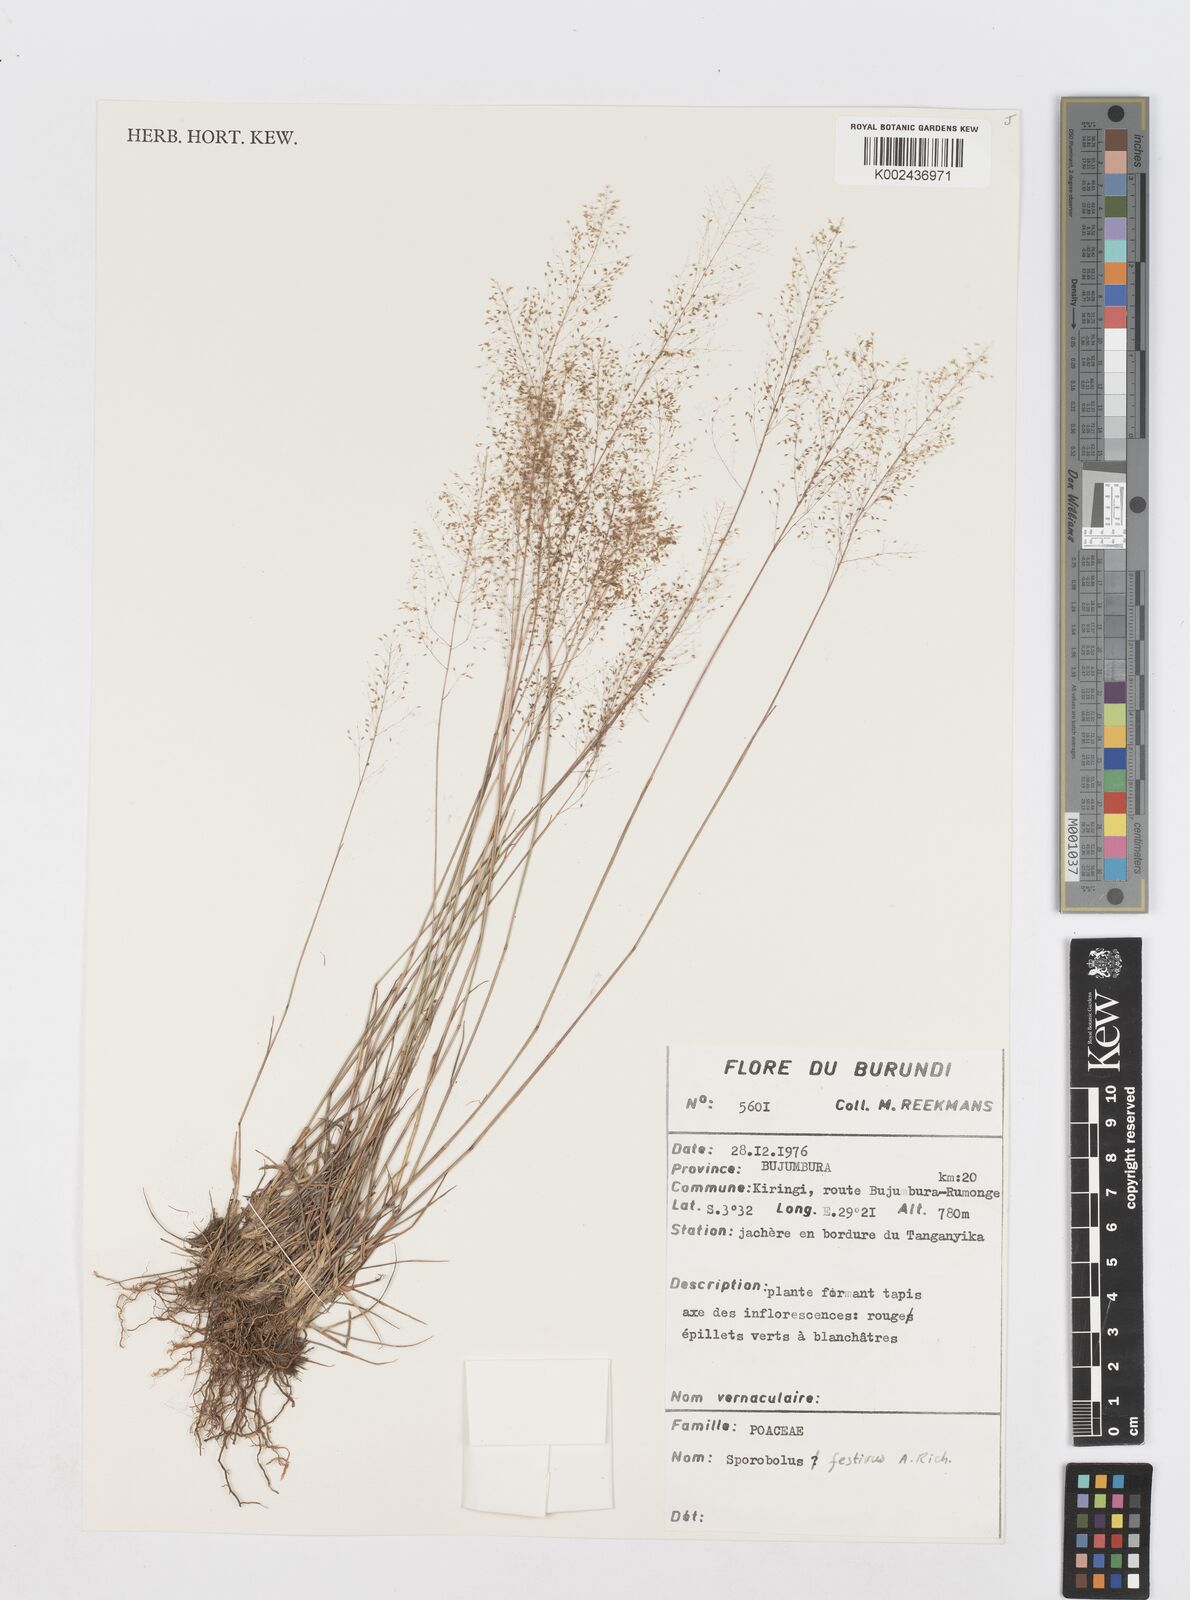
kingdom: Plantae
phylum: Tracheophyta
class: Liliopsida
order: Poales
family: Poaceae
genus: Sporobolus
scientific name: Sporobolus festivus
